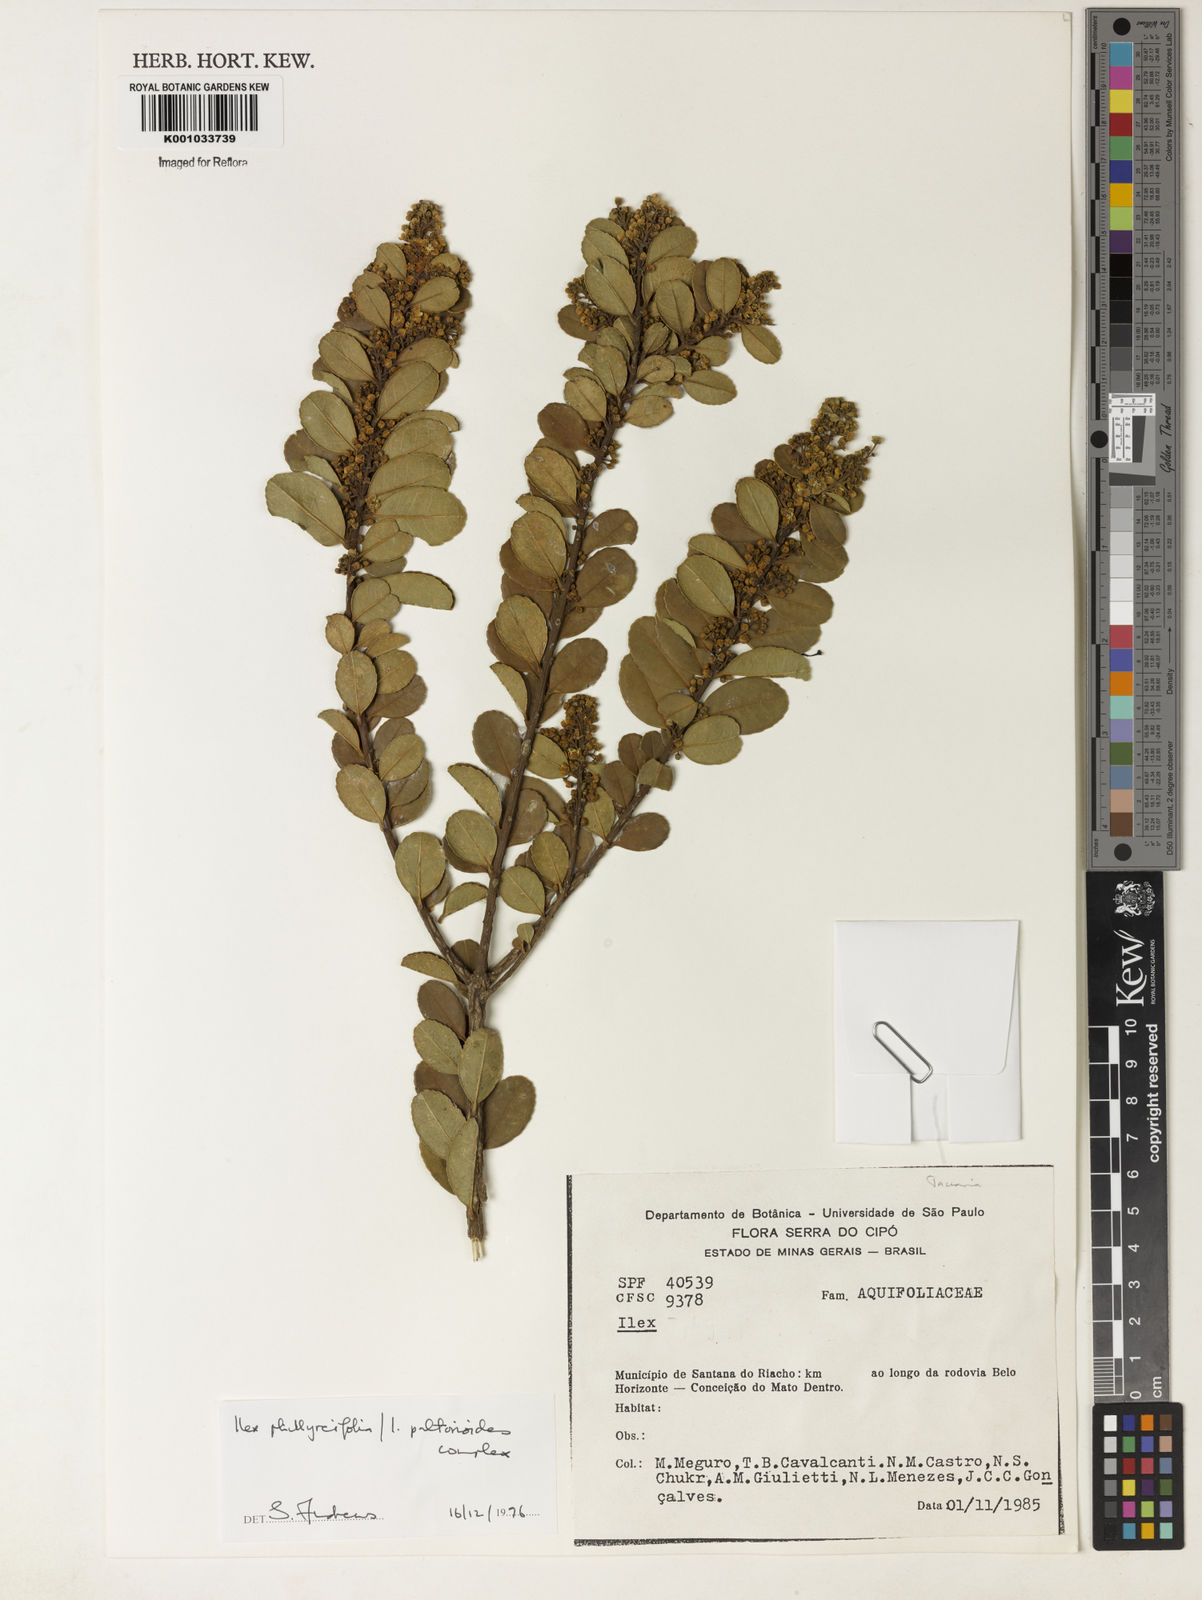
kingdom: Plantae
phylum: Tracheophyta
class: Magnoliopsida
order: Aquifoliales
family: Aquifoliaceae
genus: Ilex
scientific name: Ilex
